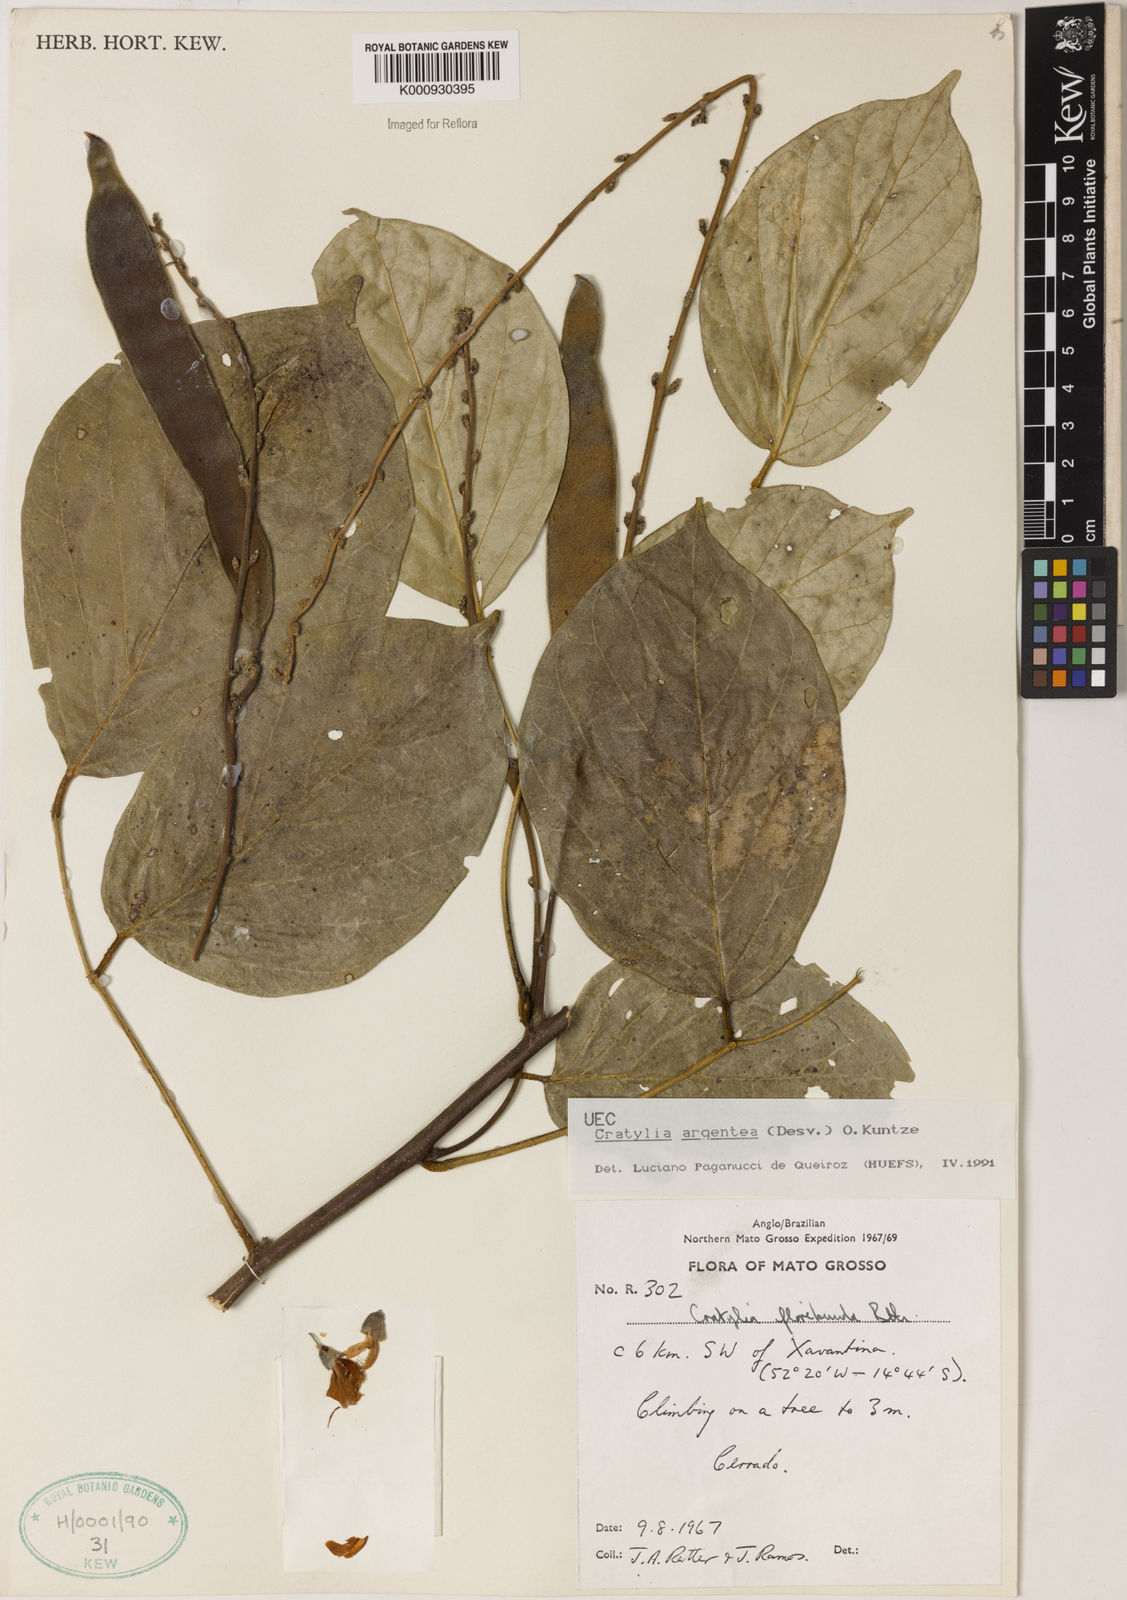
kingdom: Plantae
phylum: Tracheophyta
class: Magnoliopsida
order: Fabales
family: Fabaceae
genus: Cratylia
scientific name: Cratylia argentea
